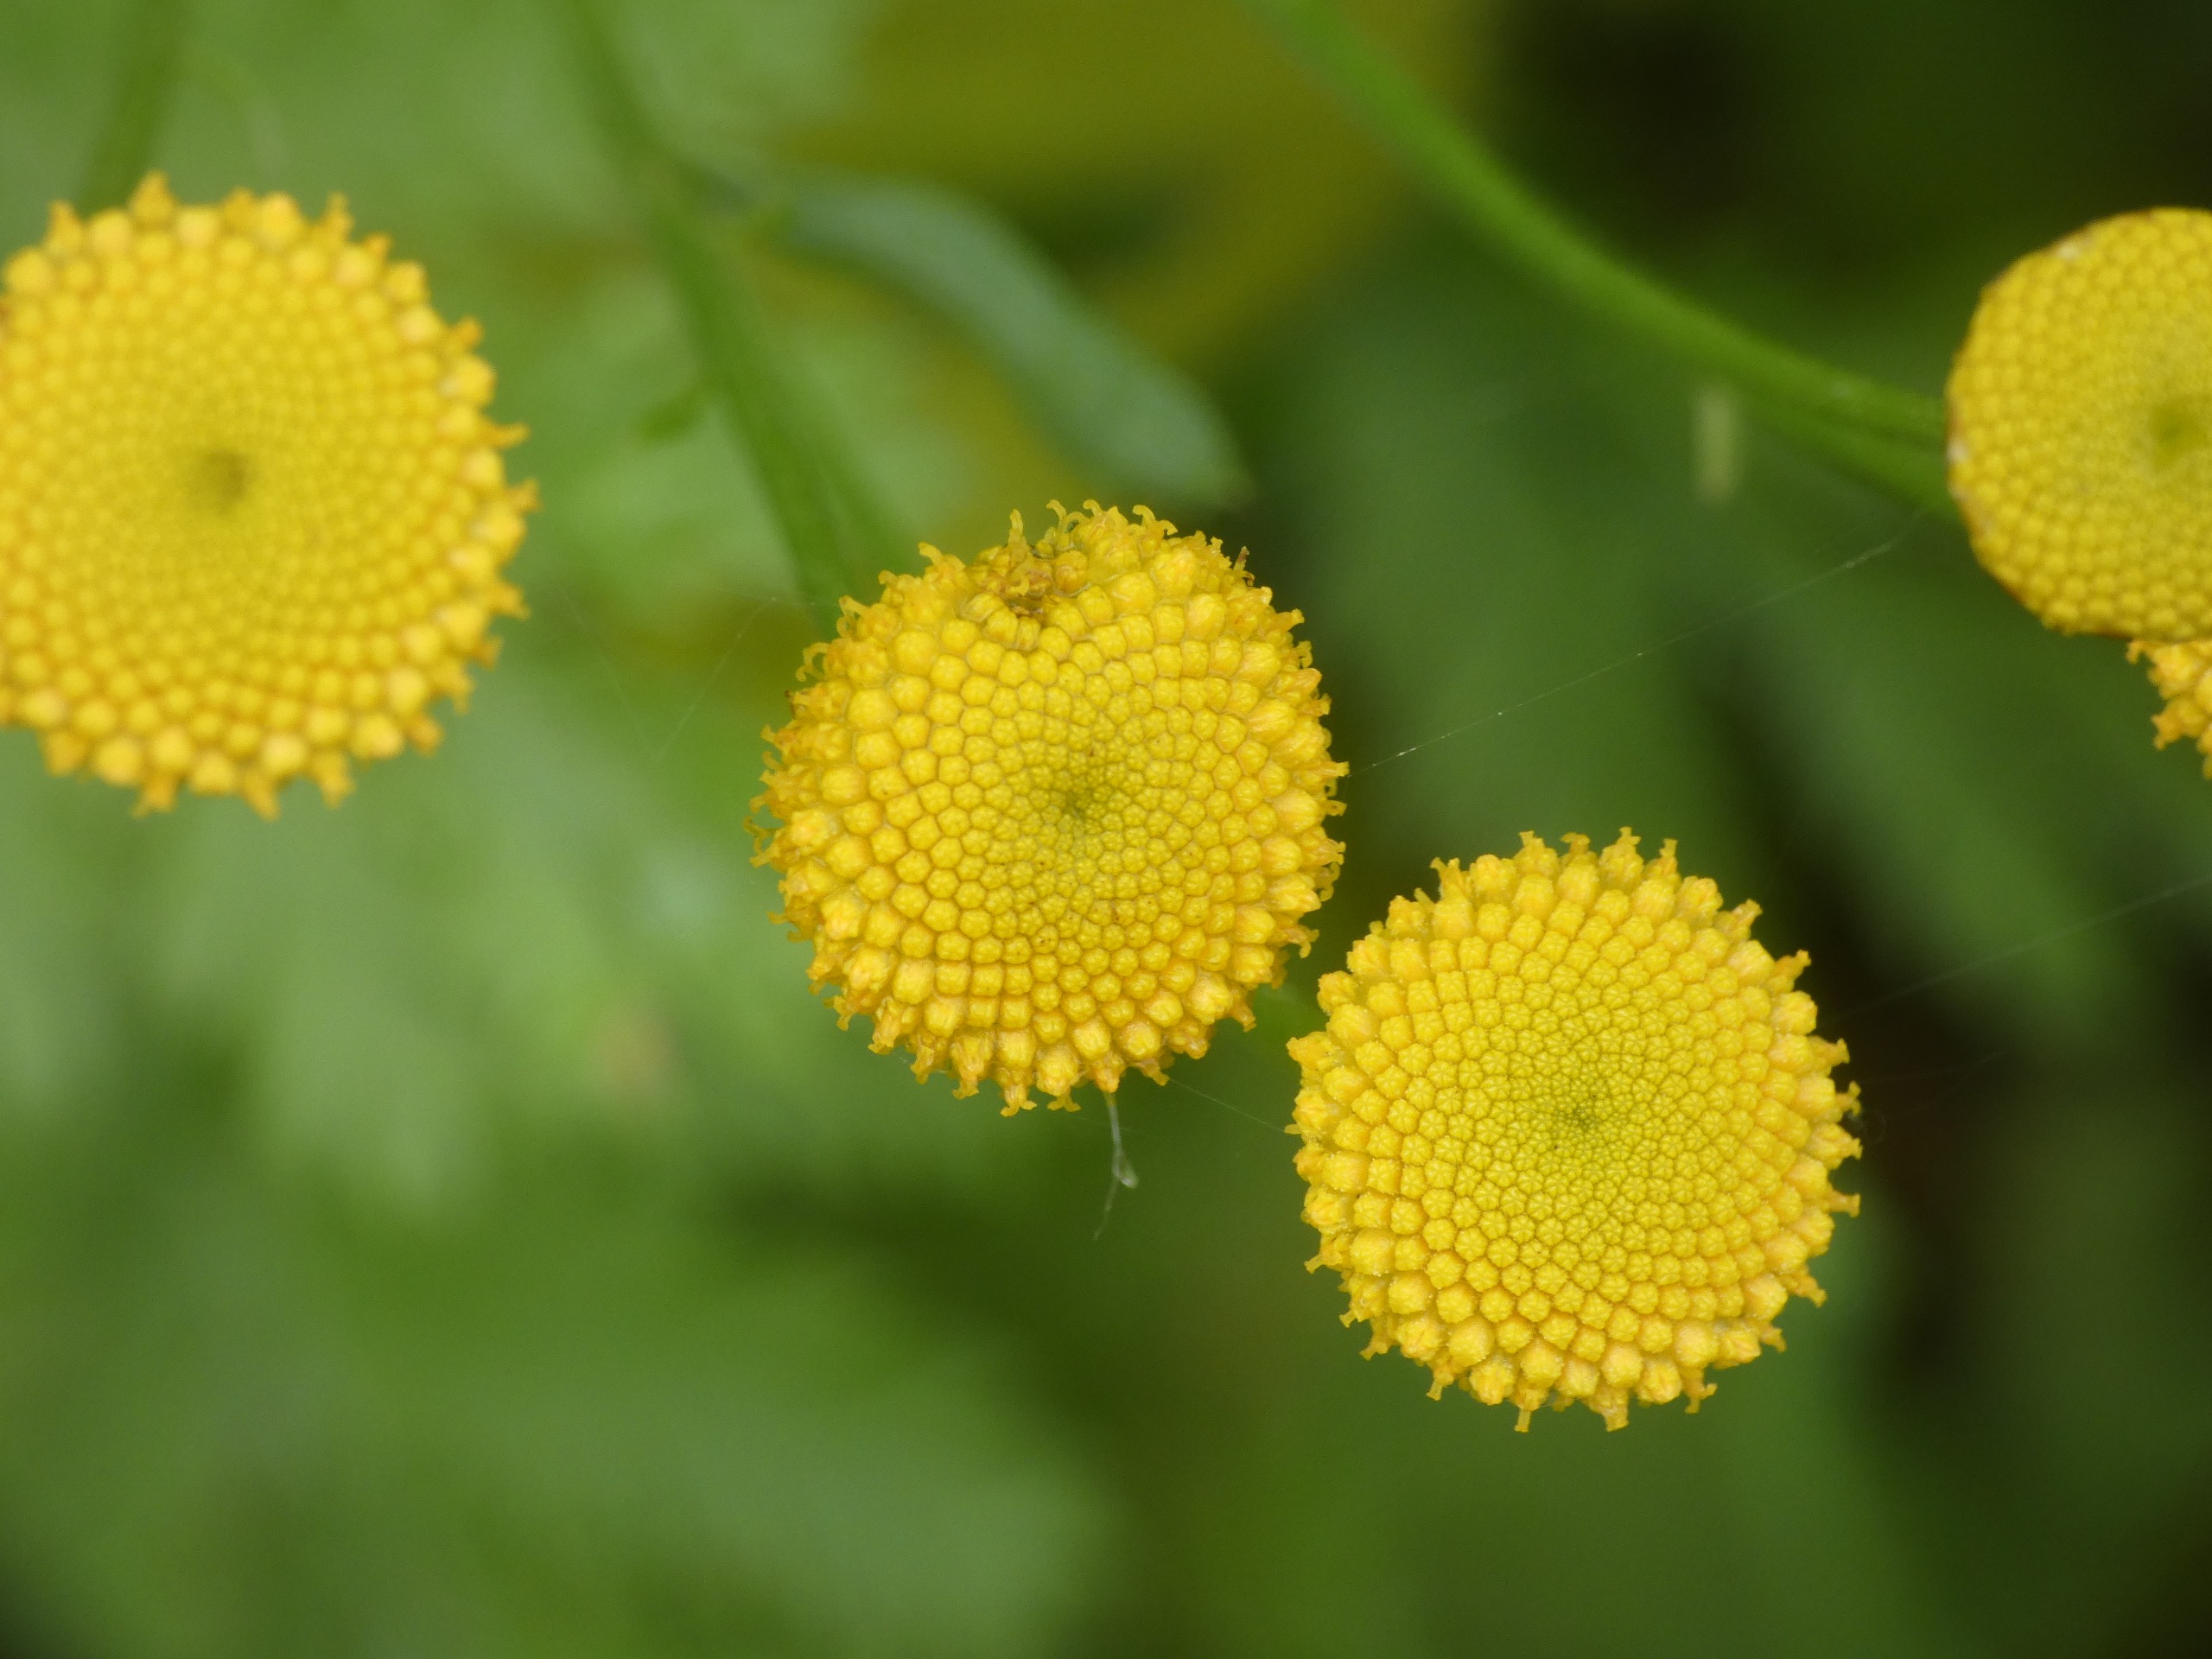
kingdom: Plantae
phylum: Tracheophyta
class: Magnoliopsida
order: Asterales
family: Asteraceae
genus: Tanacetum
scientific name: Tanacetum vulgare
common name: Rejnfan
